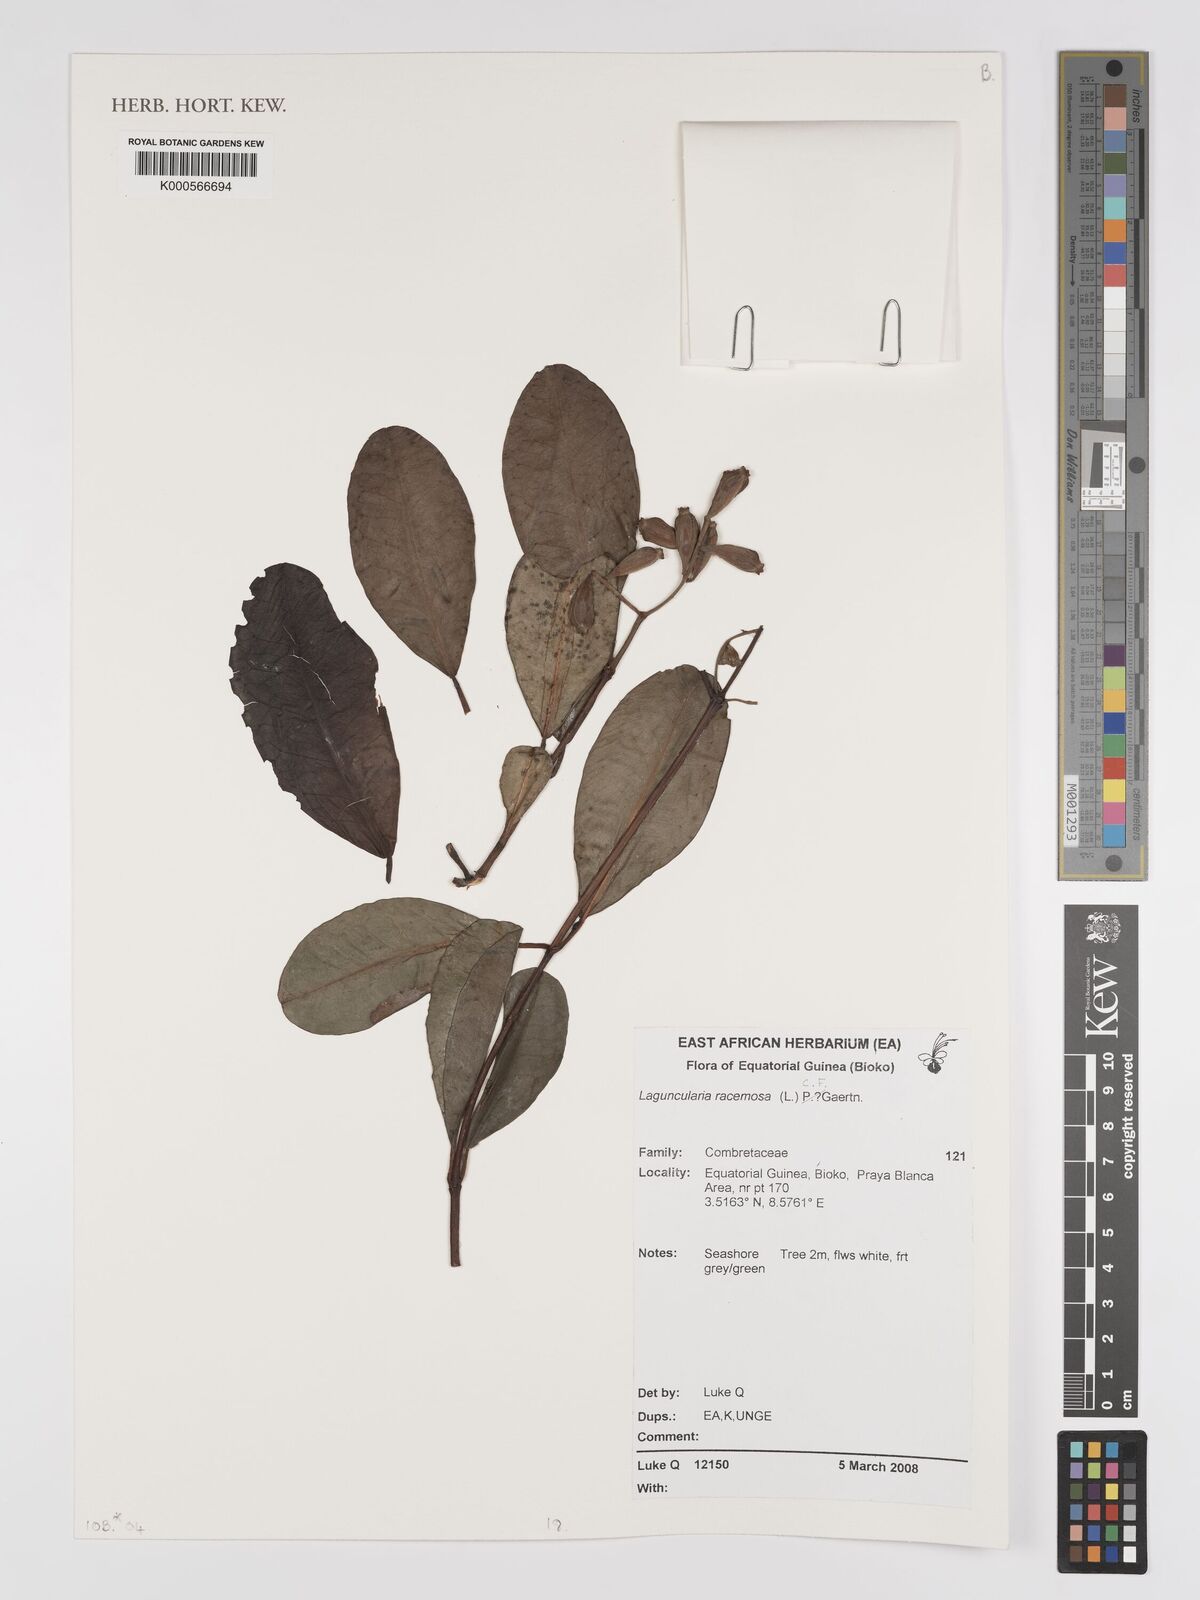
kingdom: Plantae
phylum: Tracheophyta
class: Magnoliopsida
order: Myrtales
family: Combretaceae
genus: Laguncularia
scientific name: Laguncularia racemosa
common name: White mangrove
